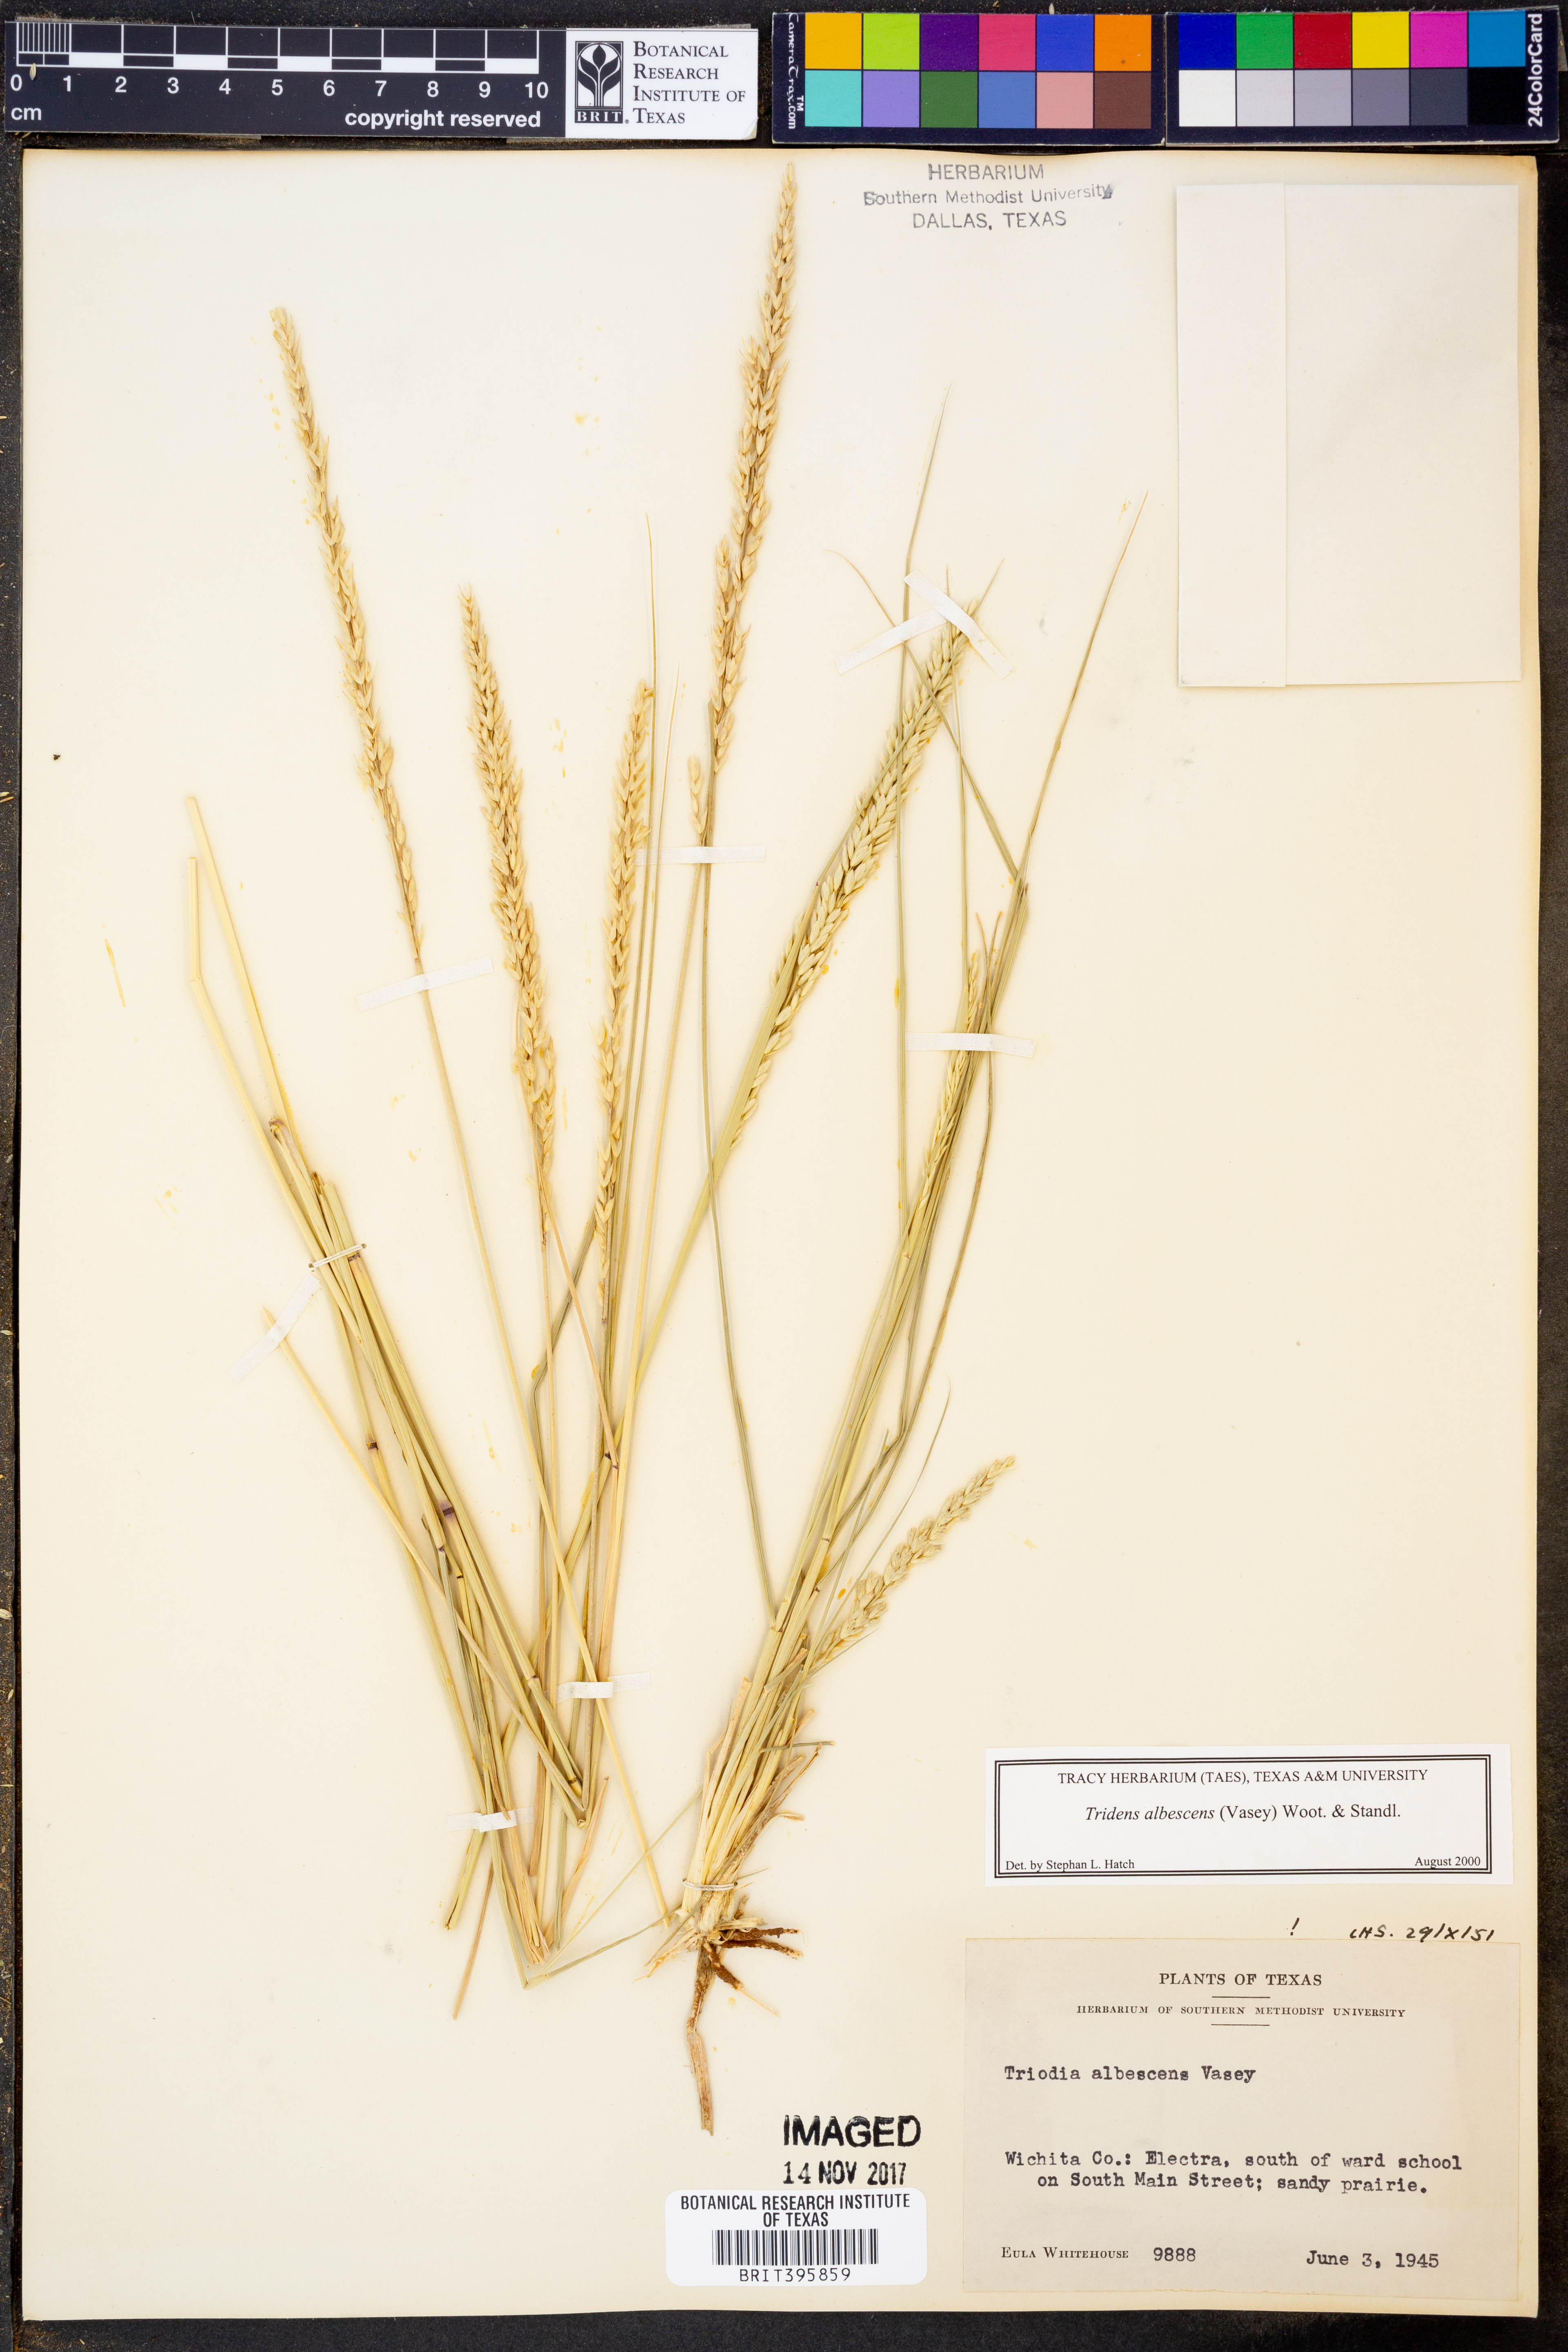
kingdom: Plantae
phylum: Tracheophyta
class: Liliopsida
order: Poales
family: Poaceae
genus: Tridens
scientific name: Tridens albescens
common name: White tridens
